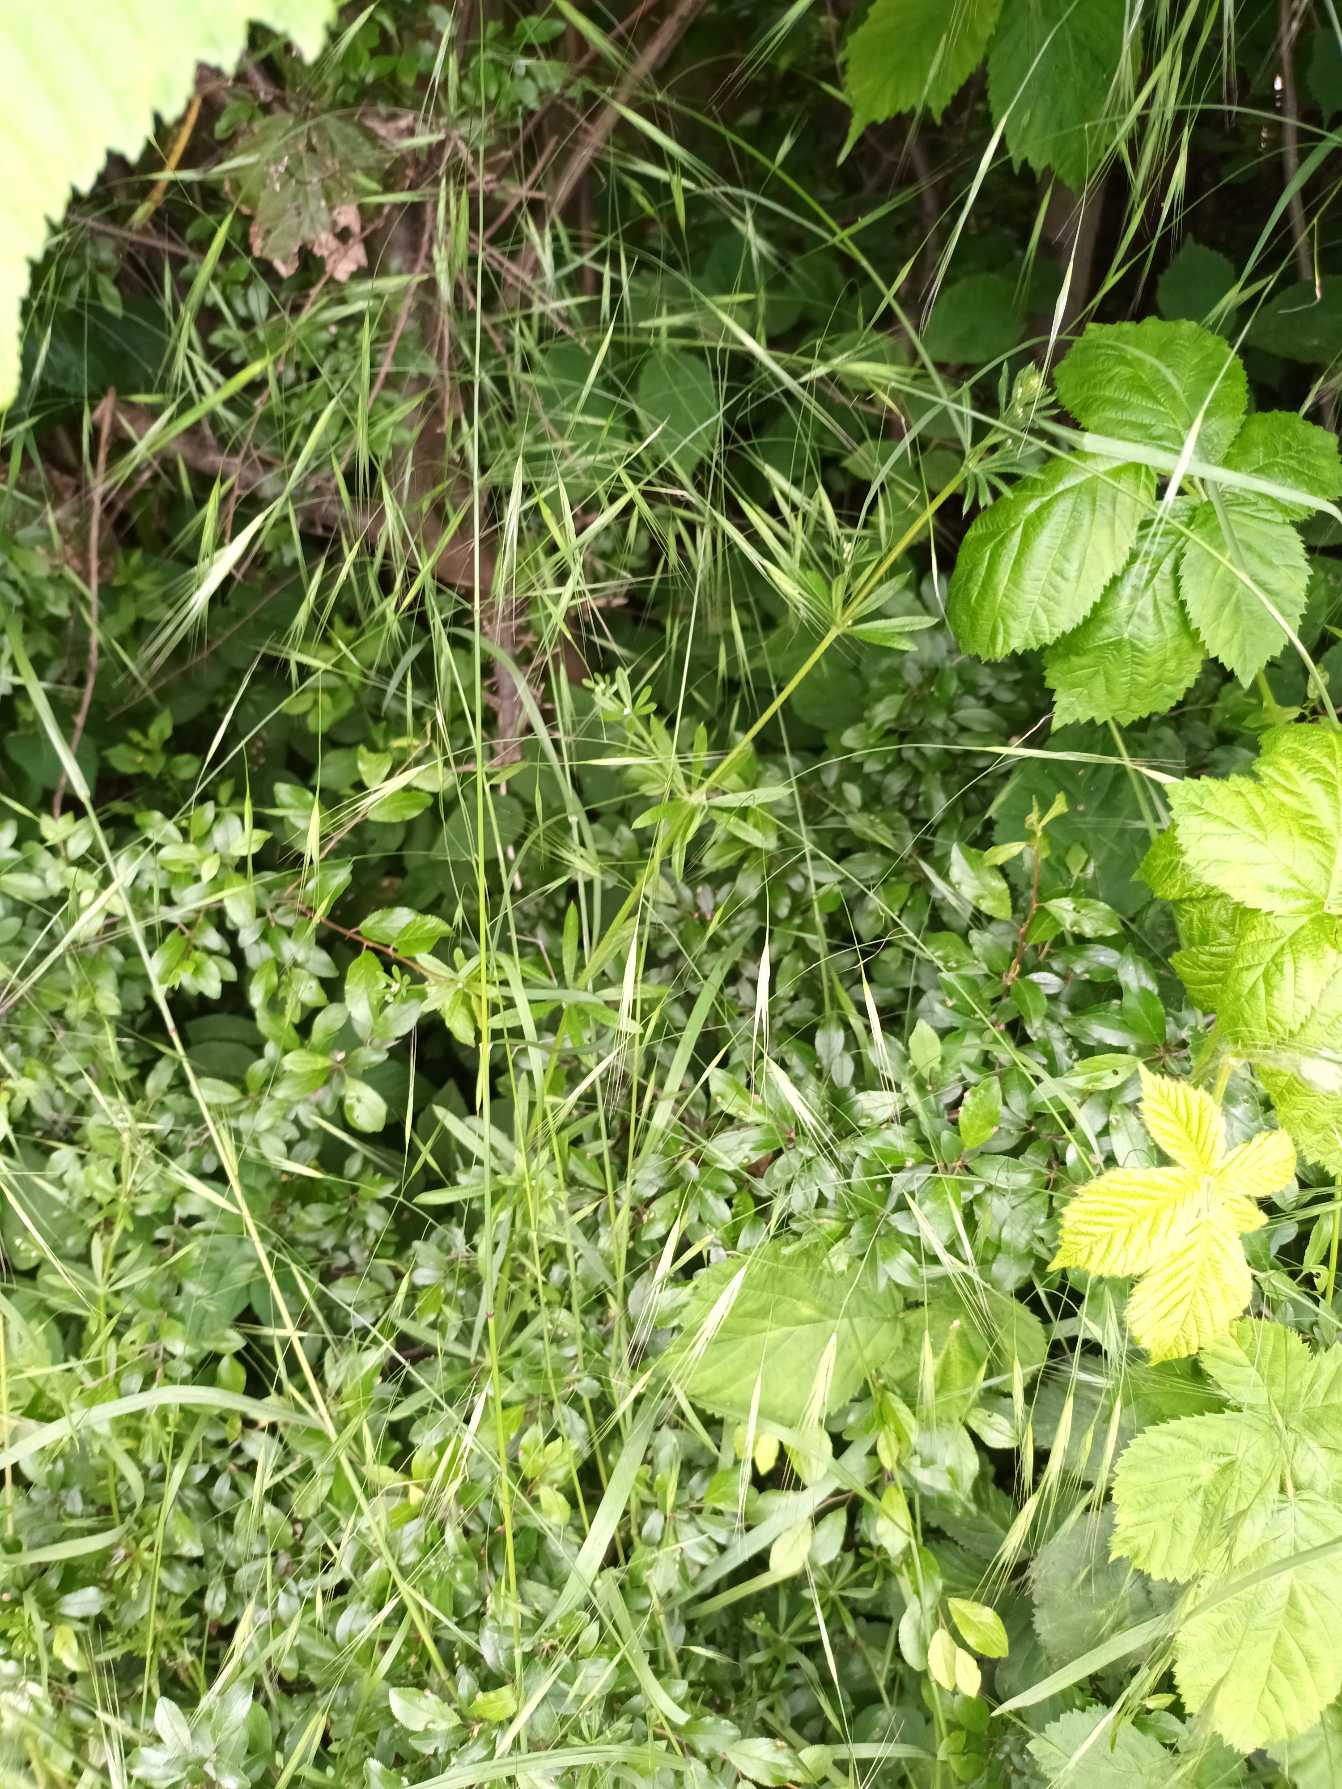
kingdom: Plantae
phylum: Tracheophyta
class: Liliopsida
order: Poales
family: Poaceae
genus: Bromus
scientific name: Bromus sterilis
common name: Gold hejre
